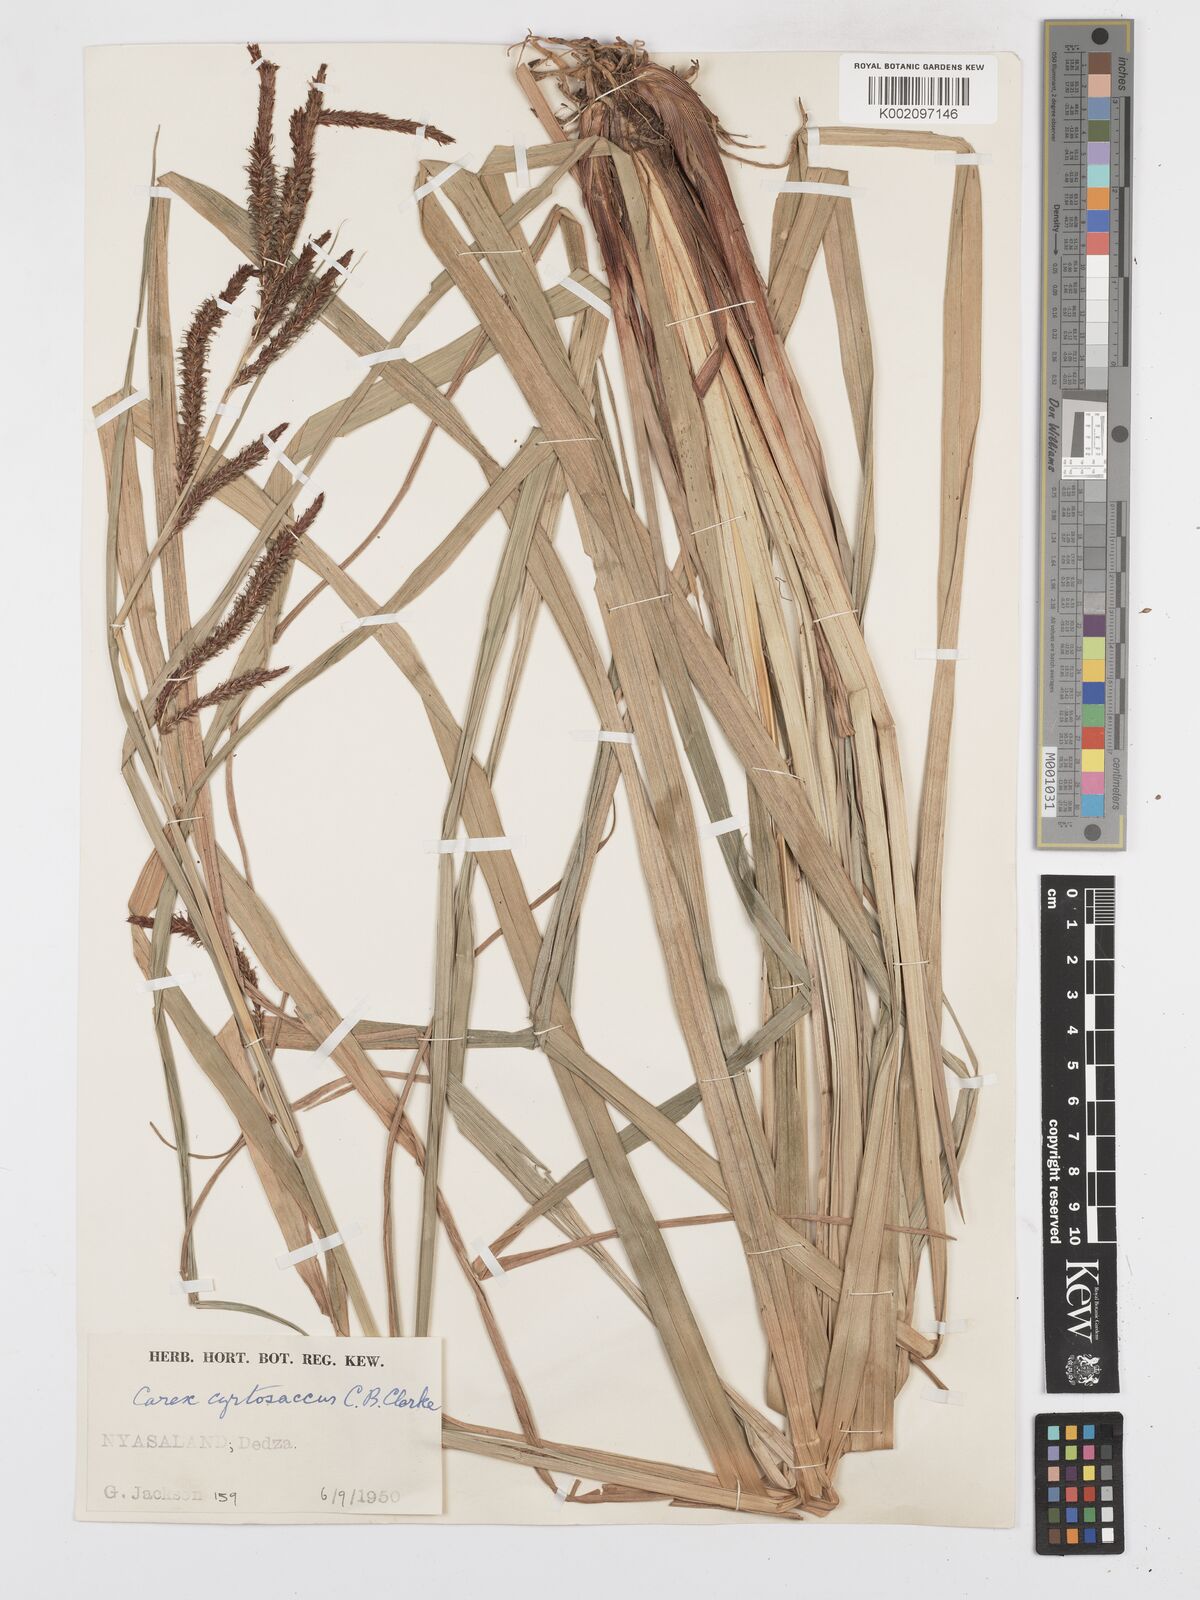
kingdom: Plantae
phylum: Tracheophyta
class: Liliopsida
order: Poales
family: Cyperaceae
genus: Carex
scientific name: Carex vallis-rosetto
